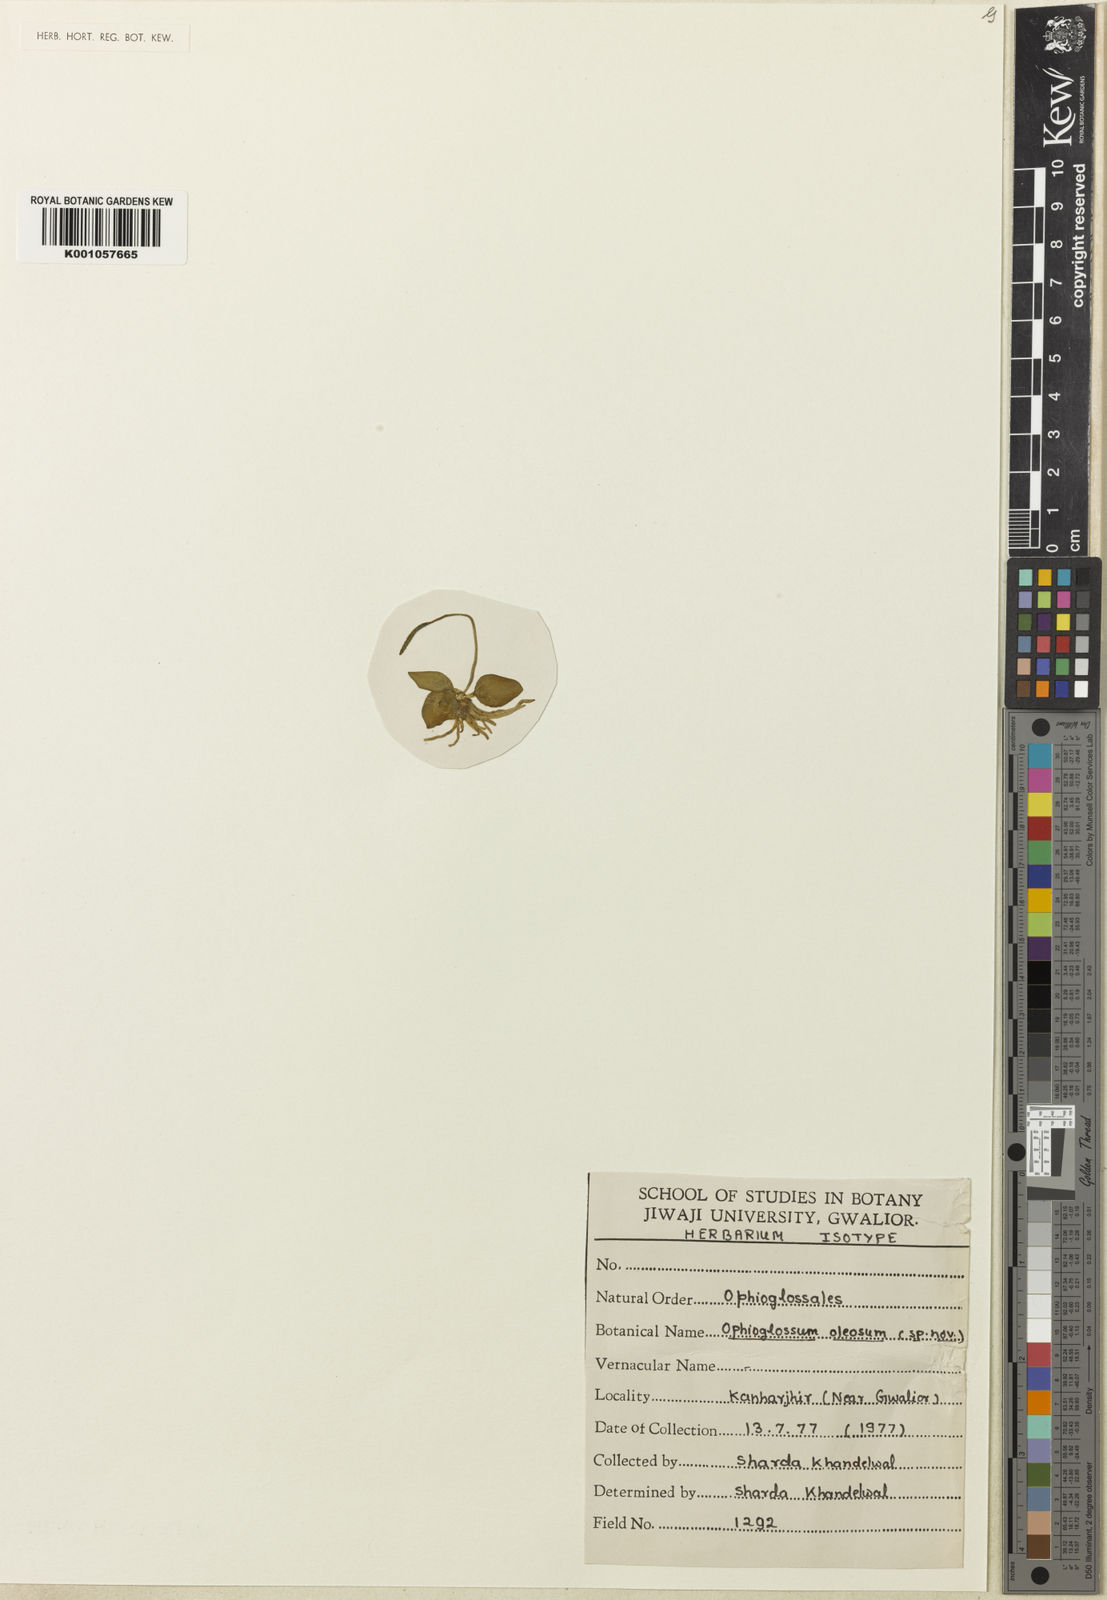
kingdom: Plantae
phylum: Tracheophyta
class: Polypodiopsida
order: Ophioglossales
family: Ophioglossaceae
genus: Ophioglossum
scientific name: Ophioglossum costatum
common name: Large adder's tongue
